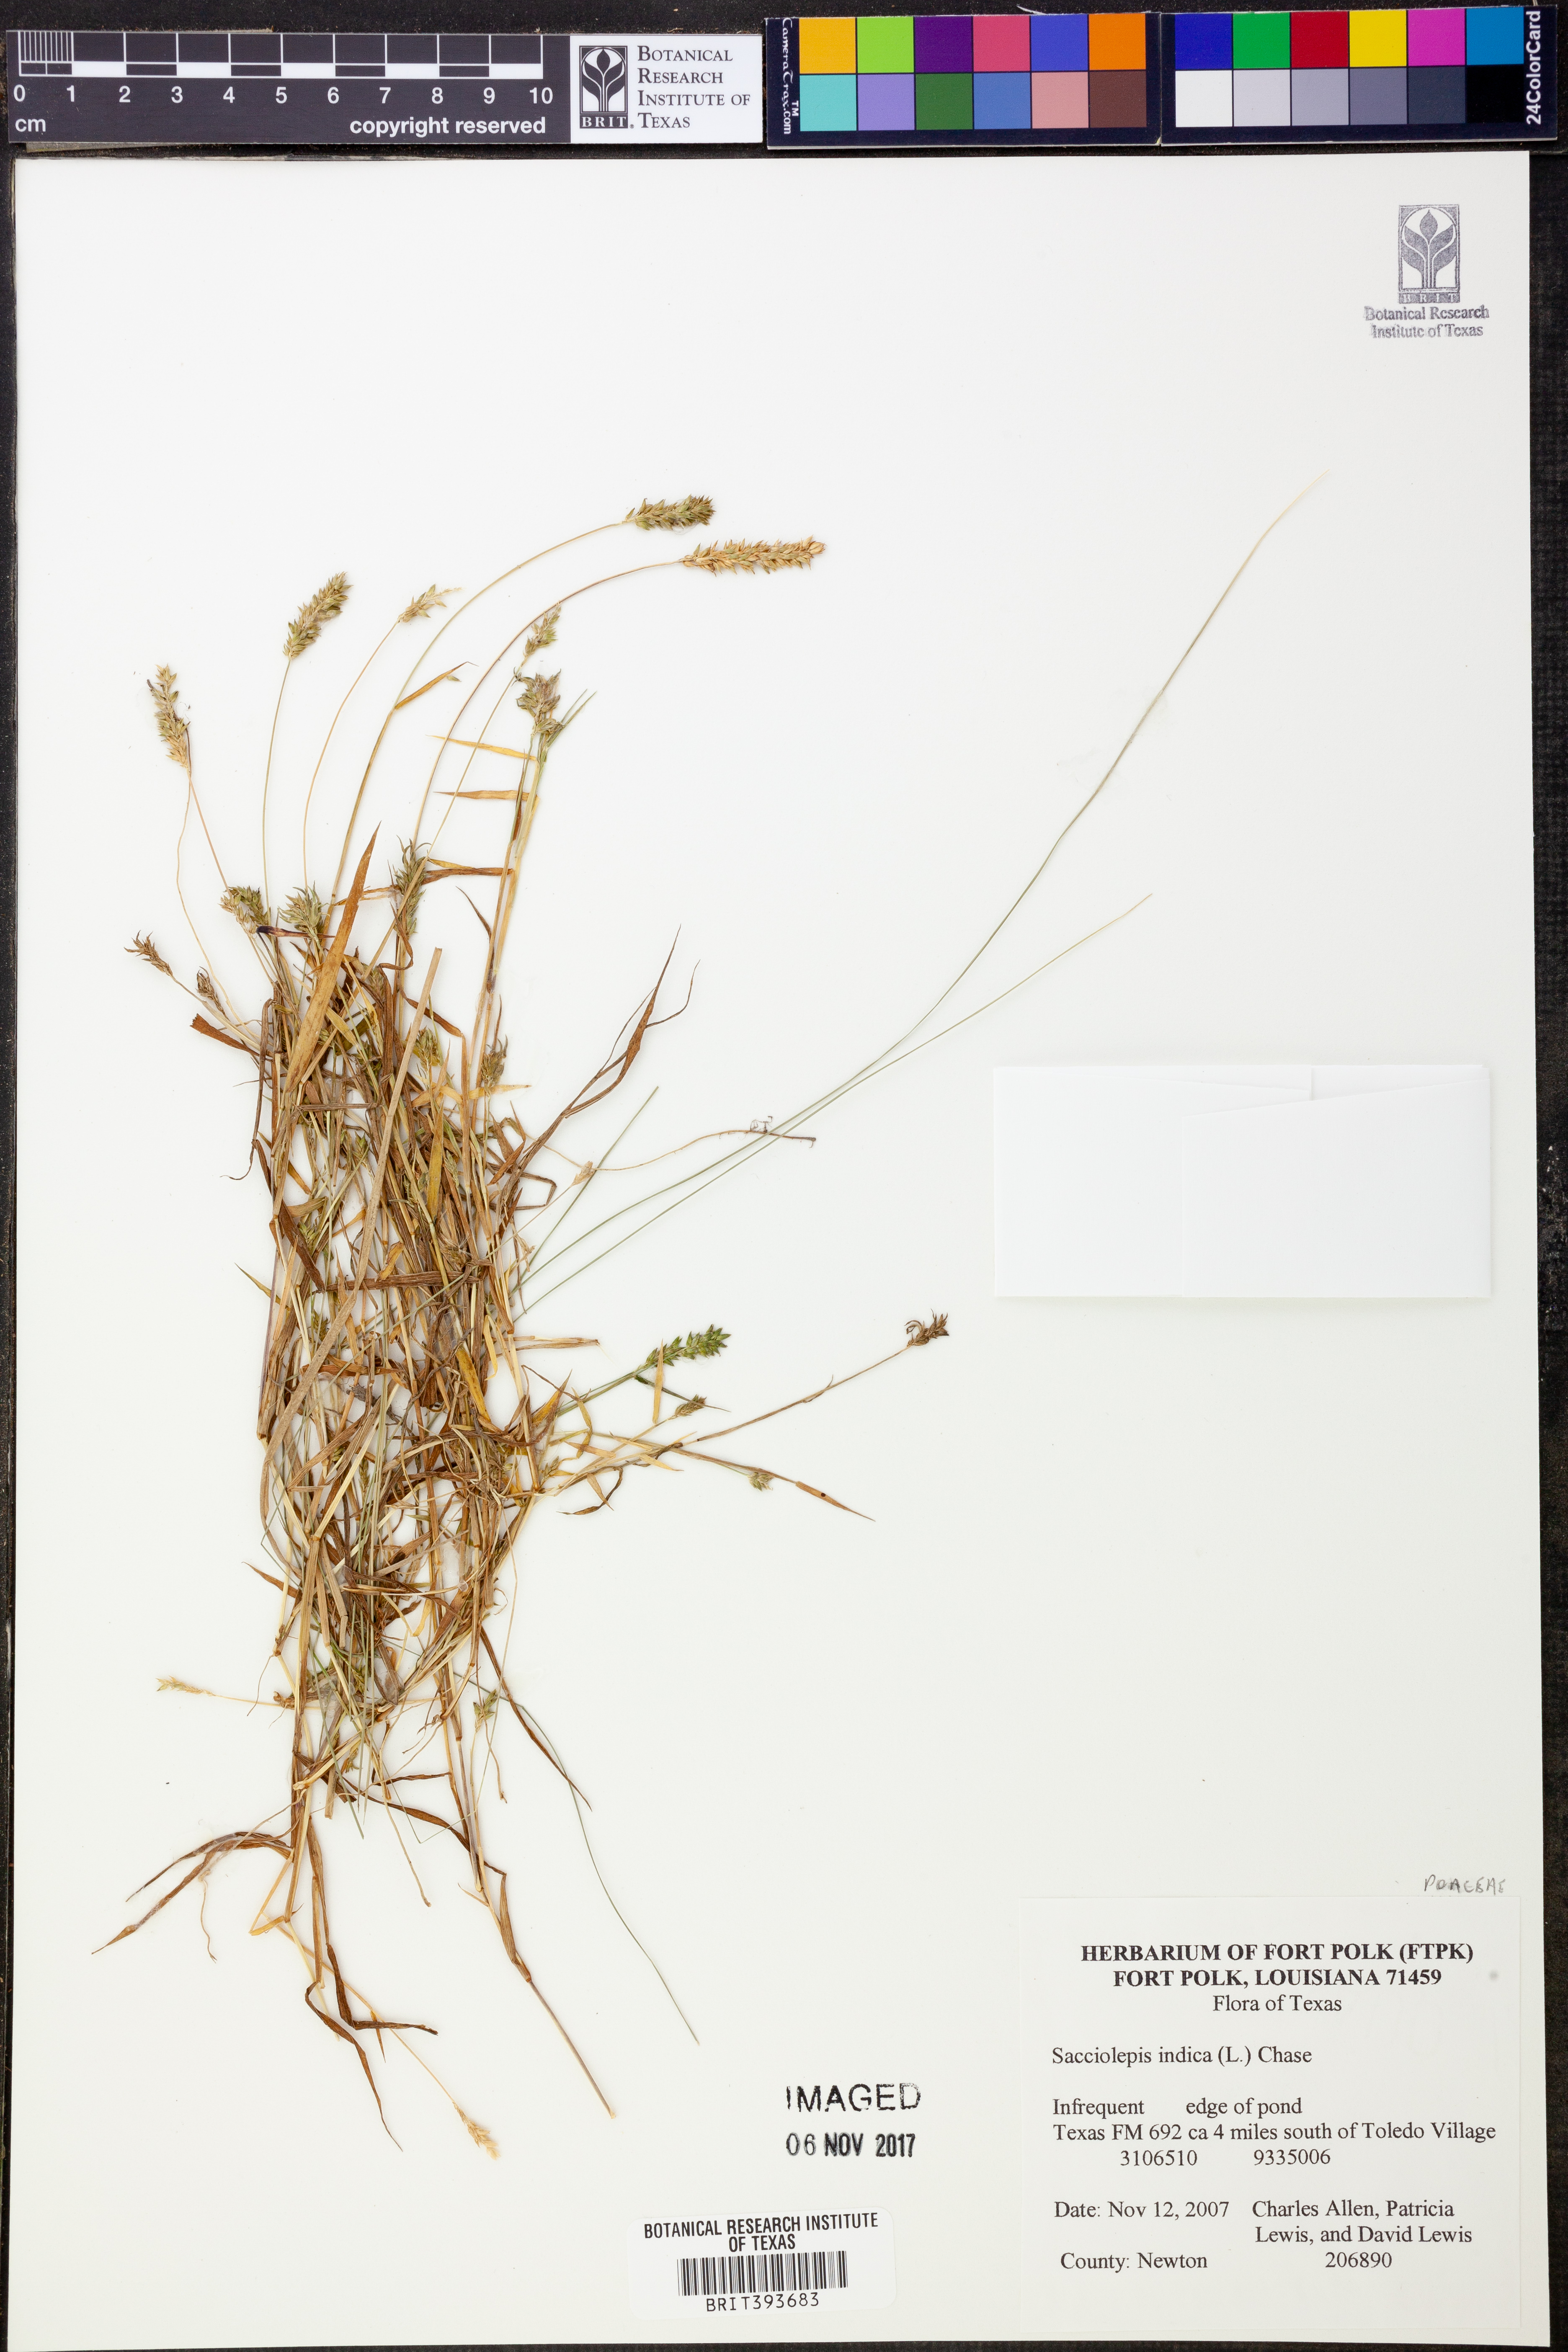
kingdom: Plantae
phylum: Tracheophyta
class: Liliopsida
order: Poales
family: Poaceae
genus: Sacciolepis
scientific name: Sacciolepis indica
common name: Glenwoodgrass
